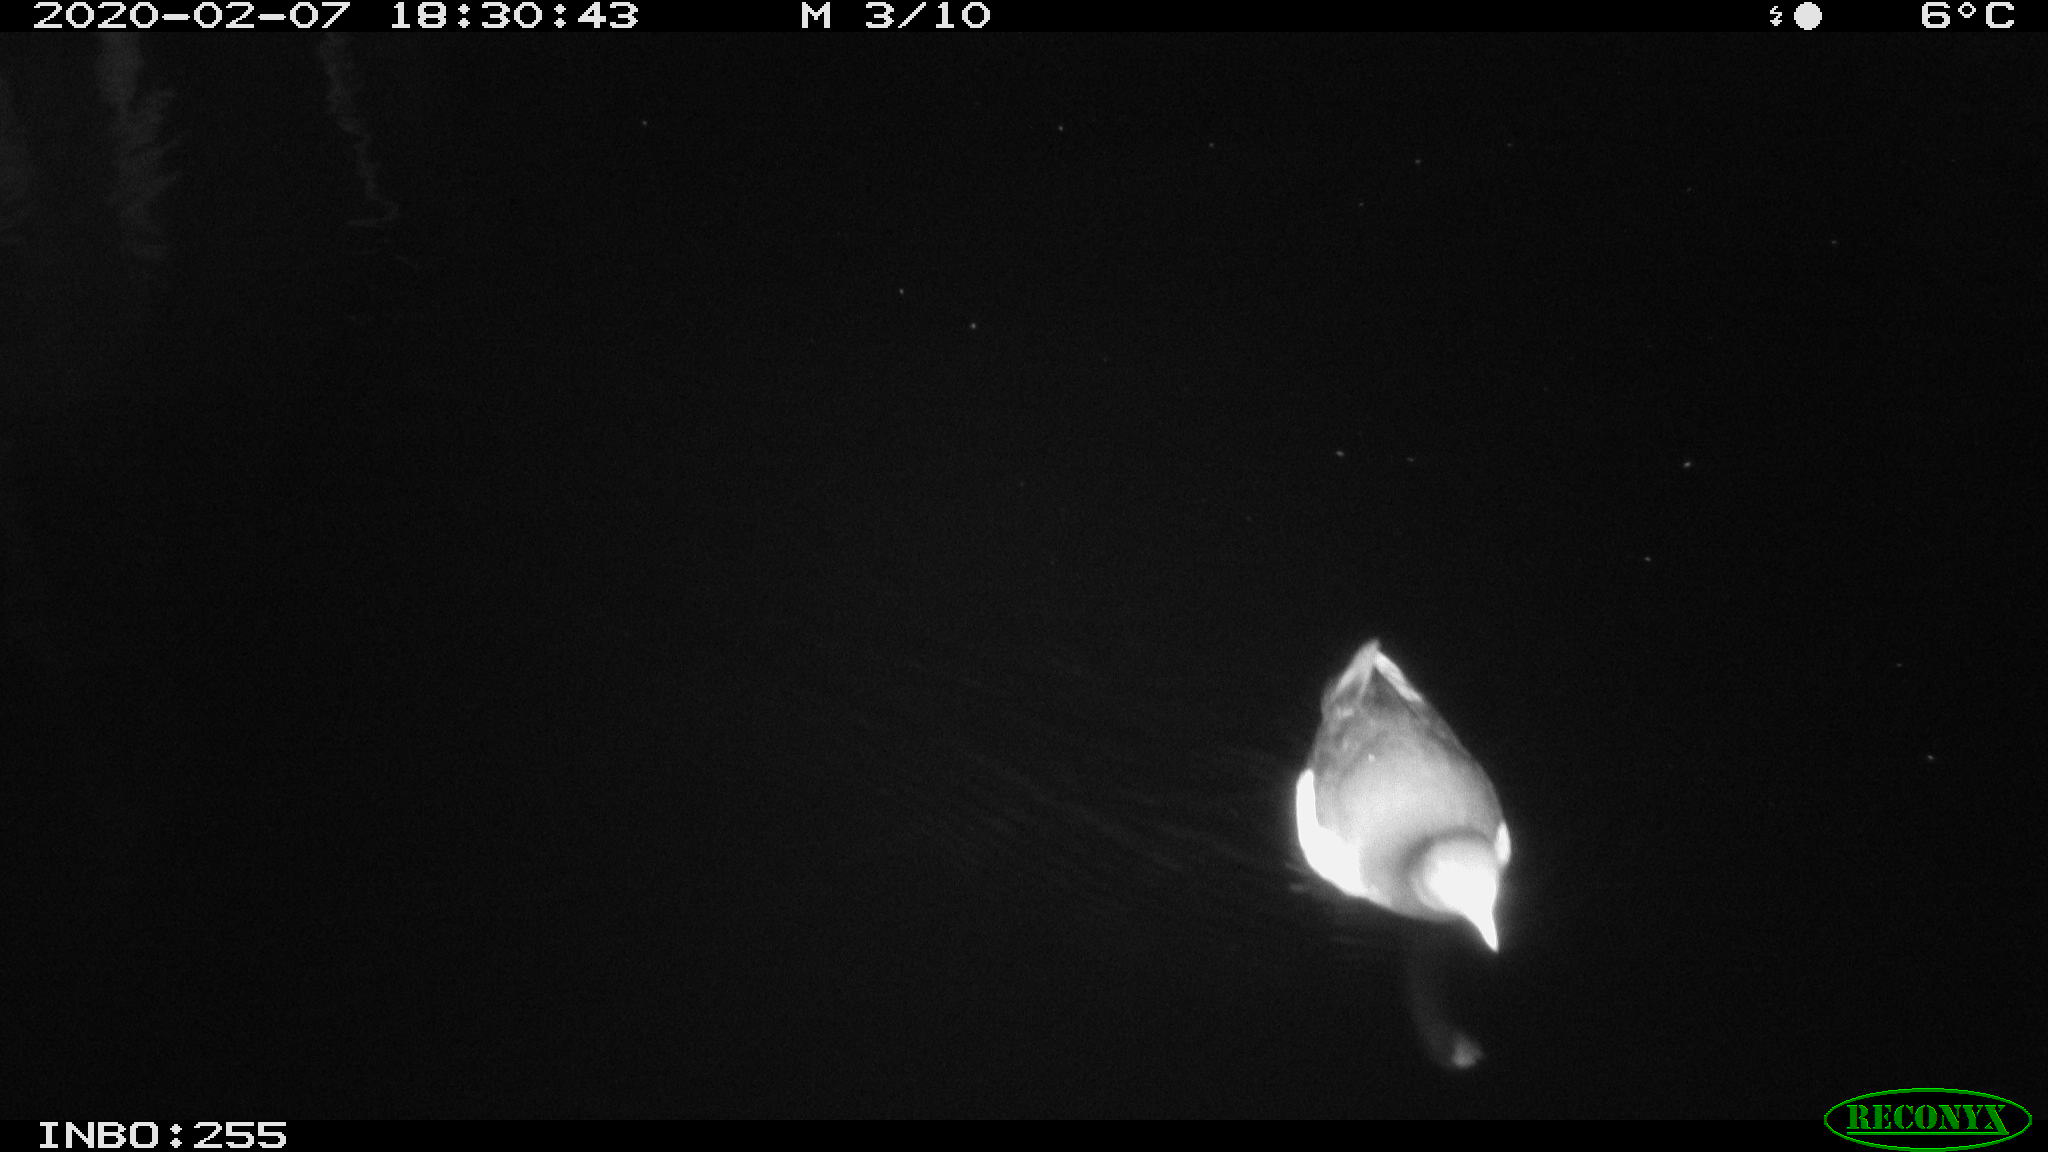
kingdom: Animalia
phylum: Chordata
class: Aves
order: Gruiformes
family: Rallidae
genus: Gallinula
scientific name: Gallinula chloropus
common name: Common moorhen
